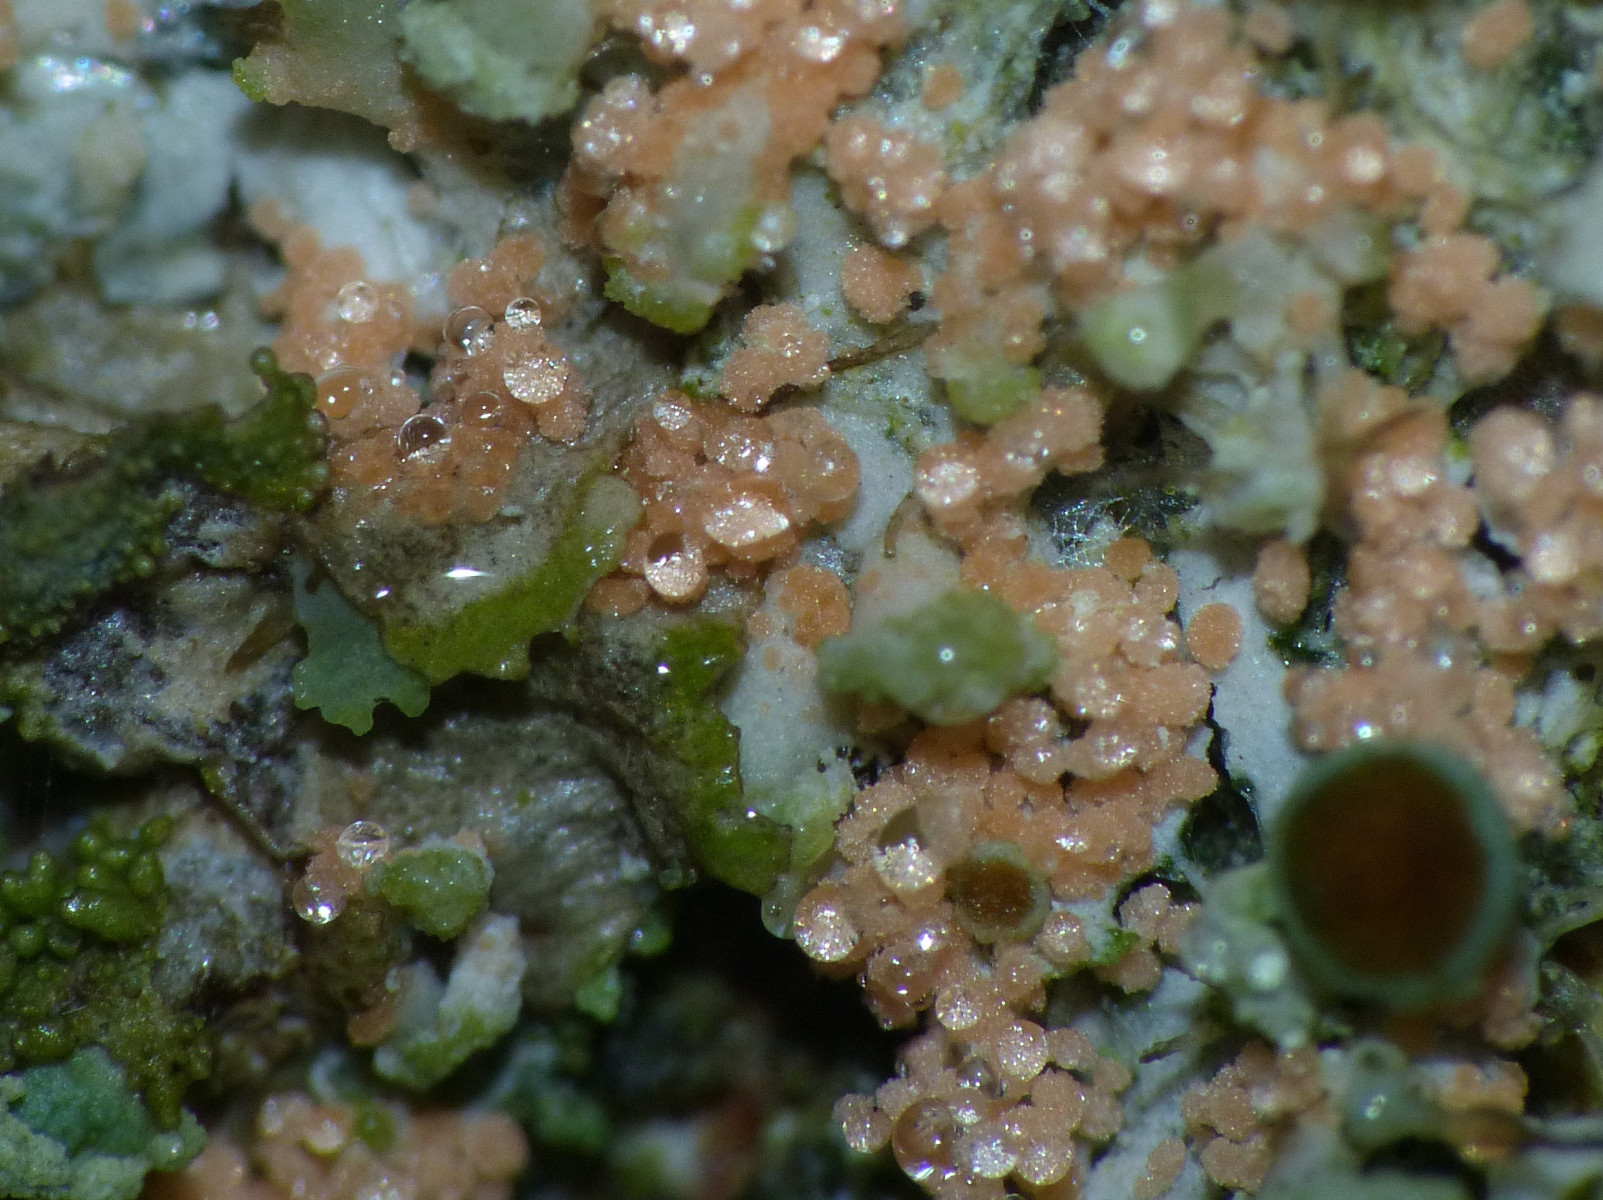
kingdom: Fungi
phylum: Basidiomycota
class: Agaricomycetes
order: Corticiales
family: Corticiaceae
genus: Erythricium
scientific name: Erythricium aurantiacum
